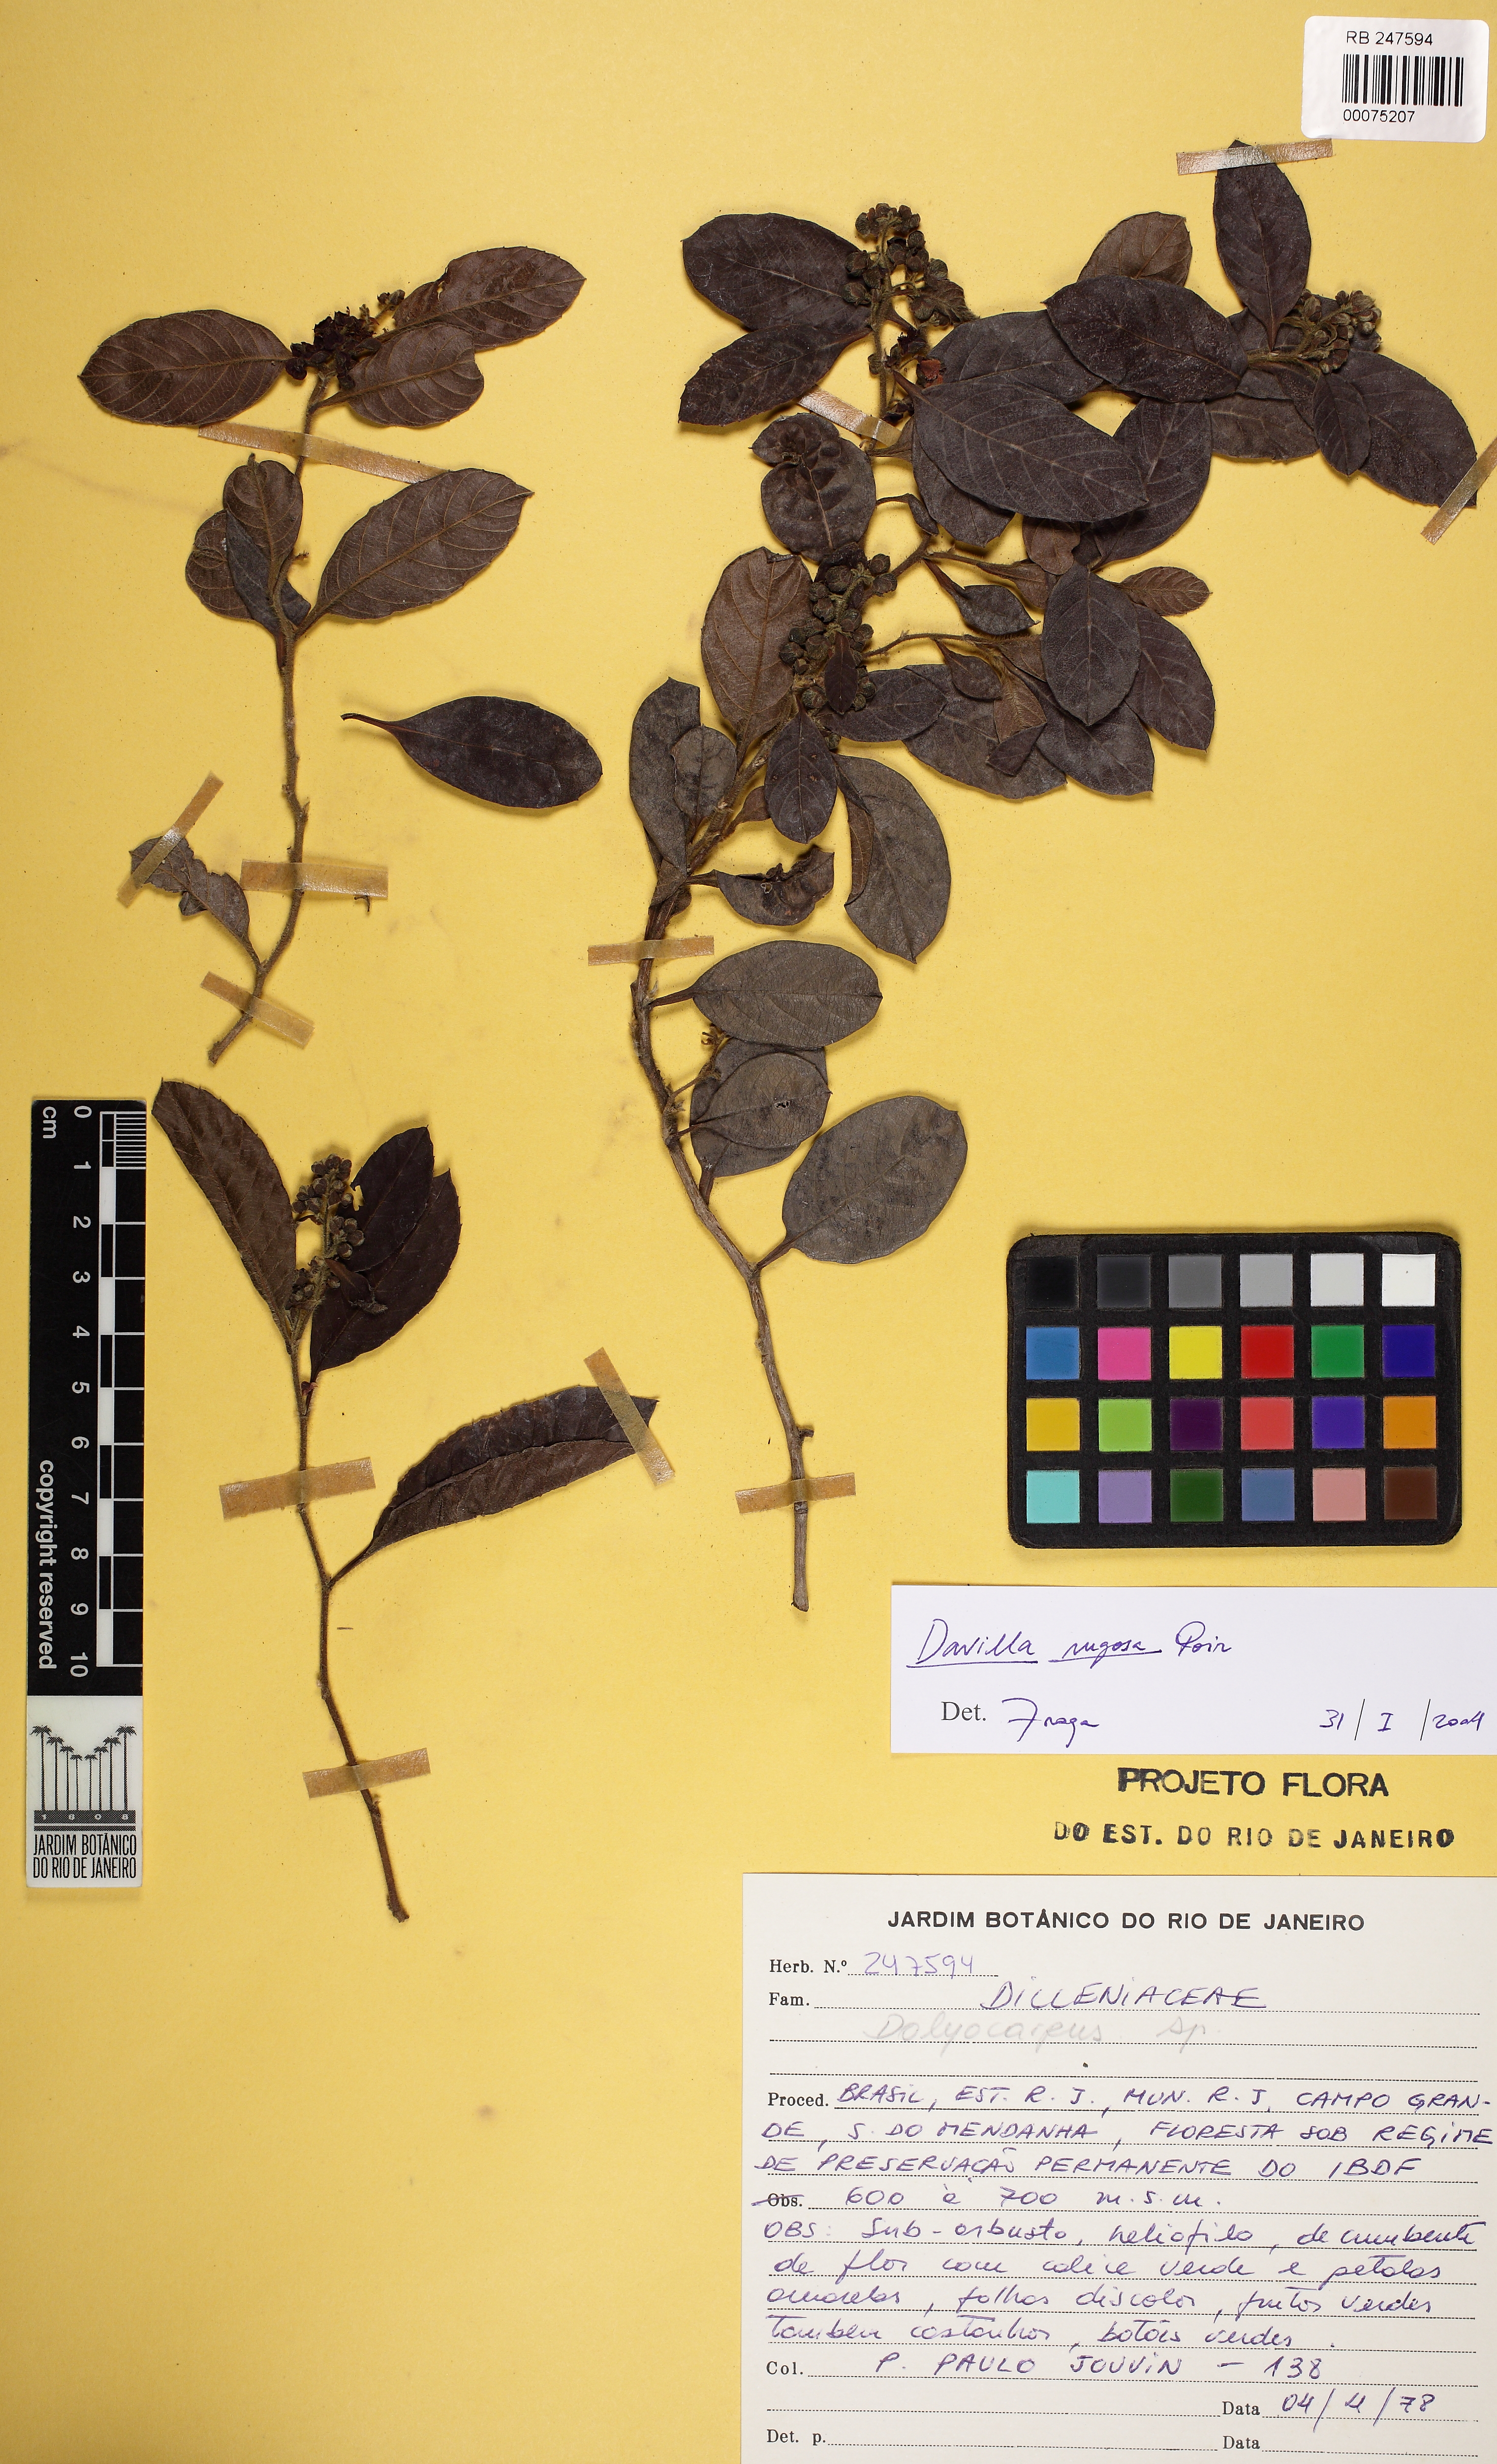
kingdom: Plantae
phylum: Tracheophyta
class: Magnoliopsida
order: Dilleniales
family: Dilleniaceae
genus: Davilla
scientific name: Davilla rugosa
